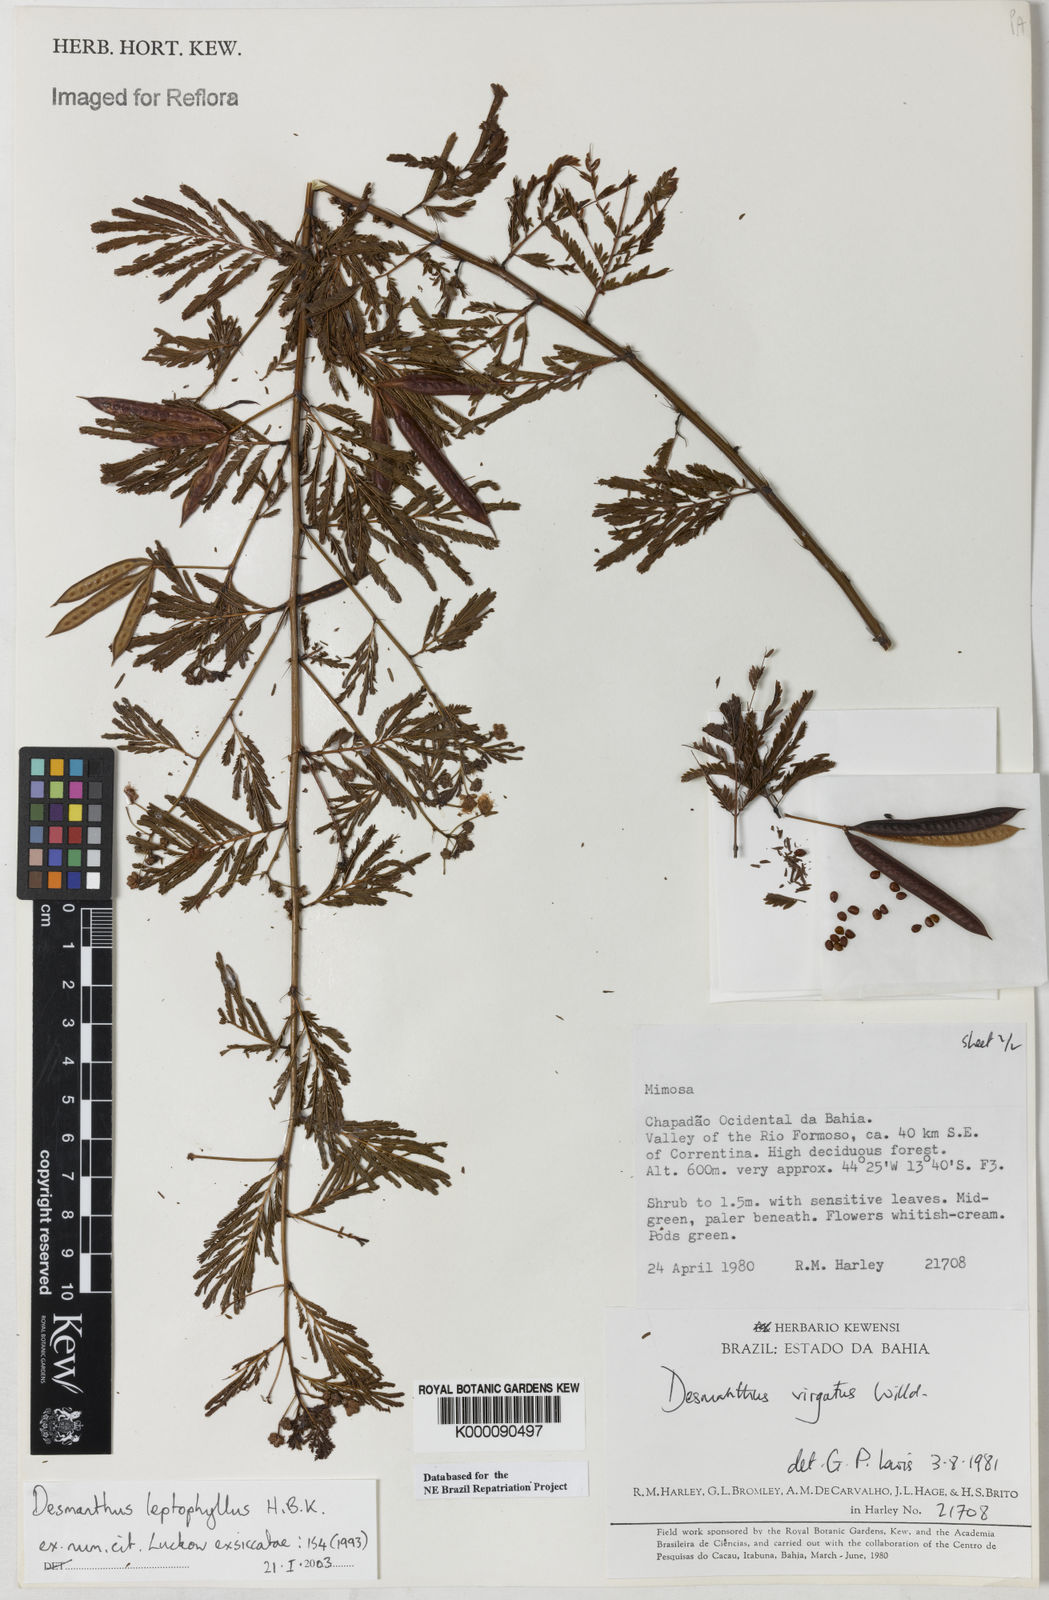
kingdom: Plantae
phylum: Tracheophyta
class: Magnoliopsida
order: Fabales
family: Fabaceae
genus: Desmanthus
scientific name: Desmanthus
